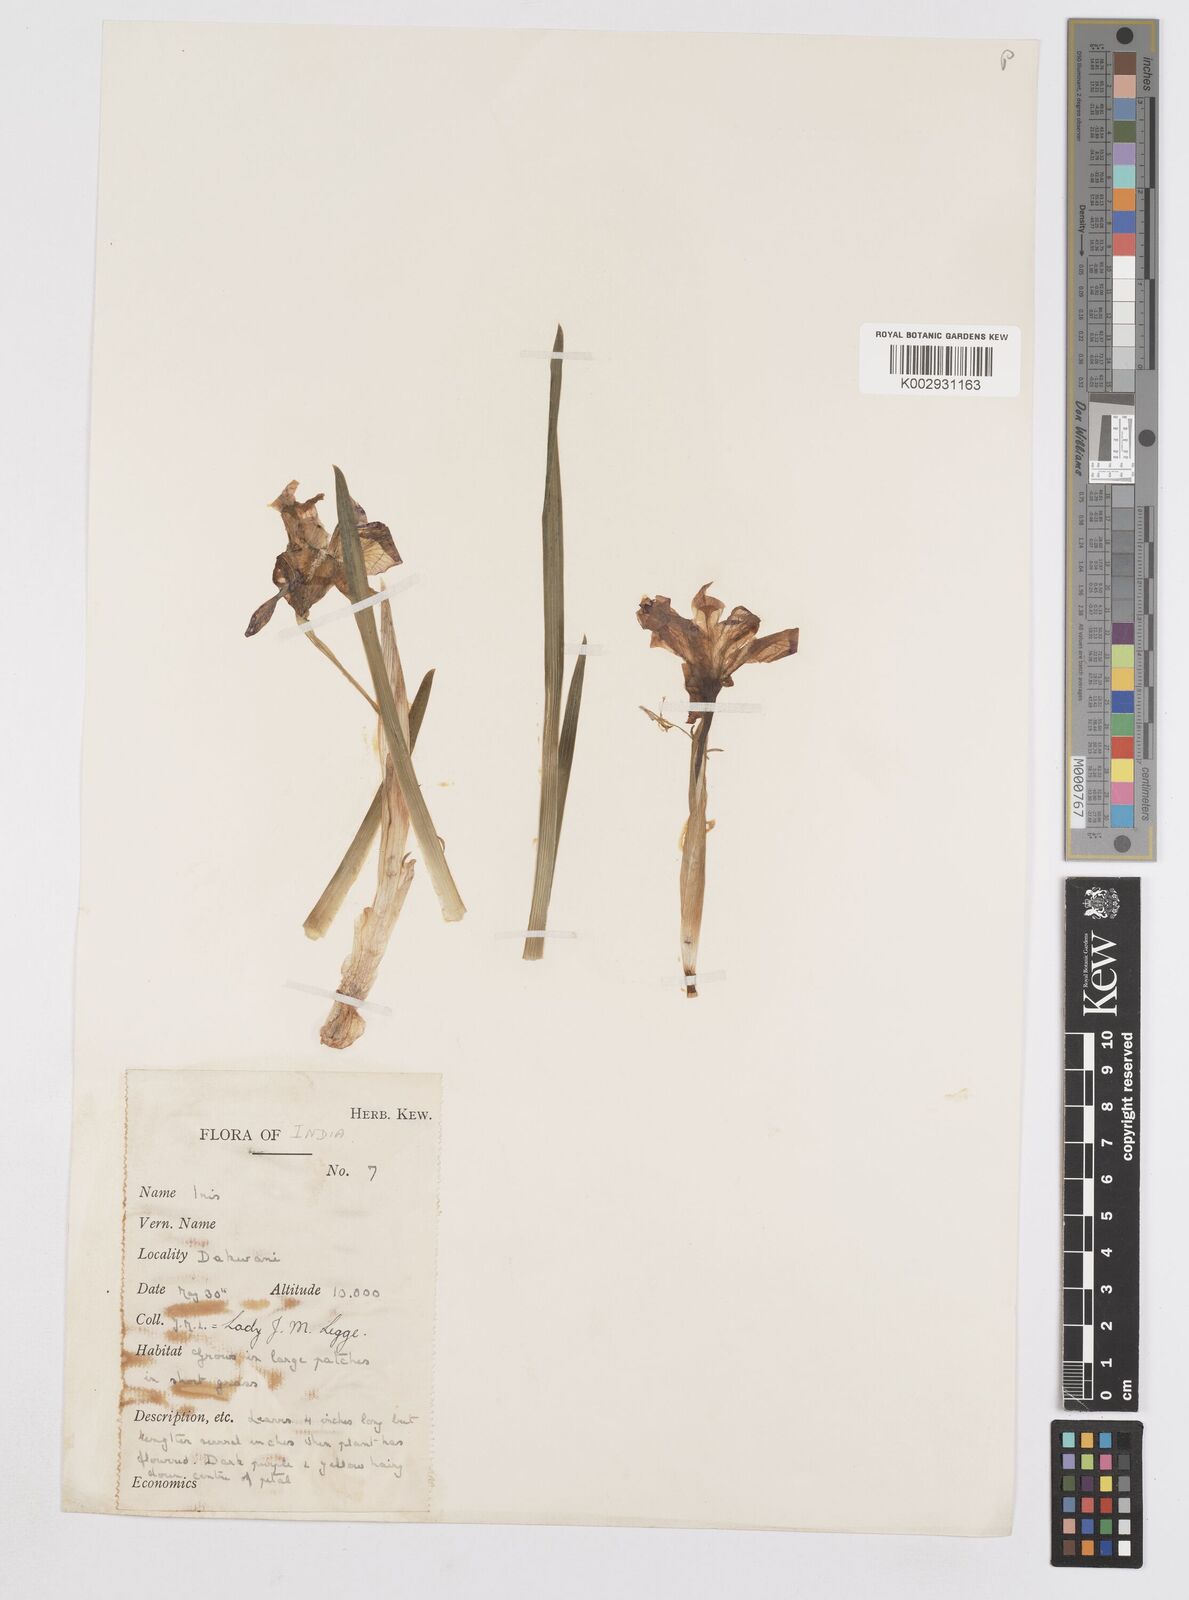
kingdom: Plantae
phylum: Tracheophyta
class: Liliopsida
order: Asparagales
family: Iridaceae
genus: Iris
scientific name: Iris kemaonensis
